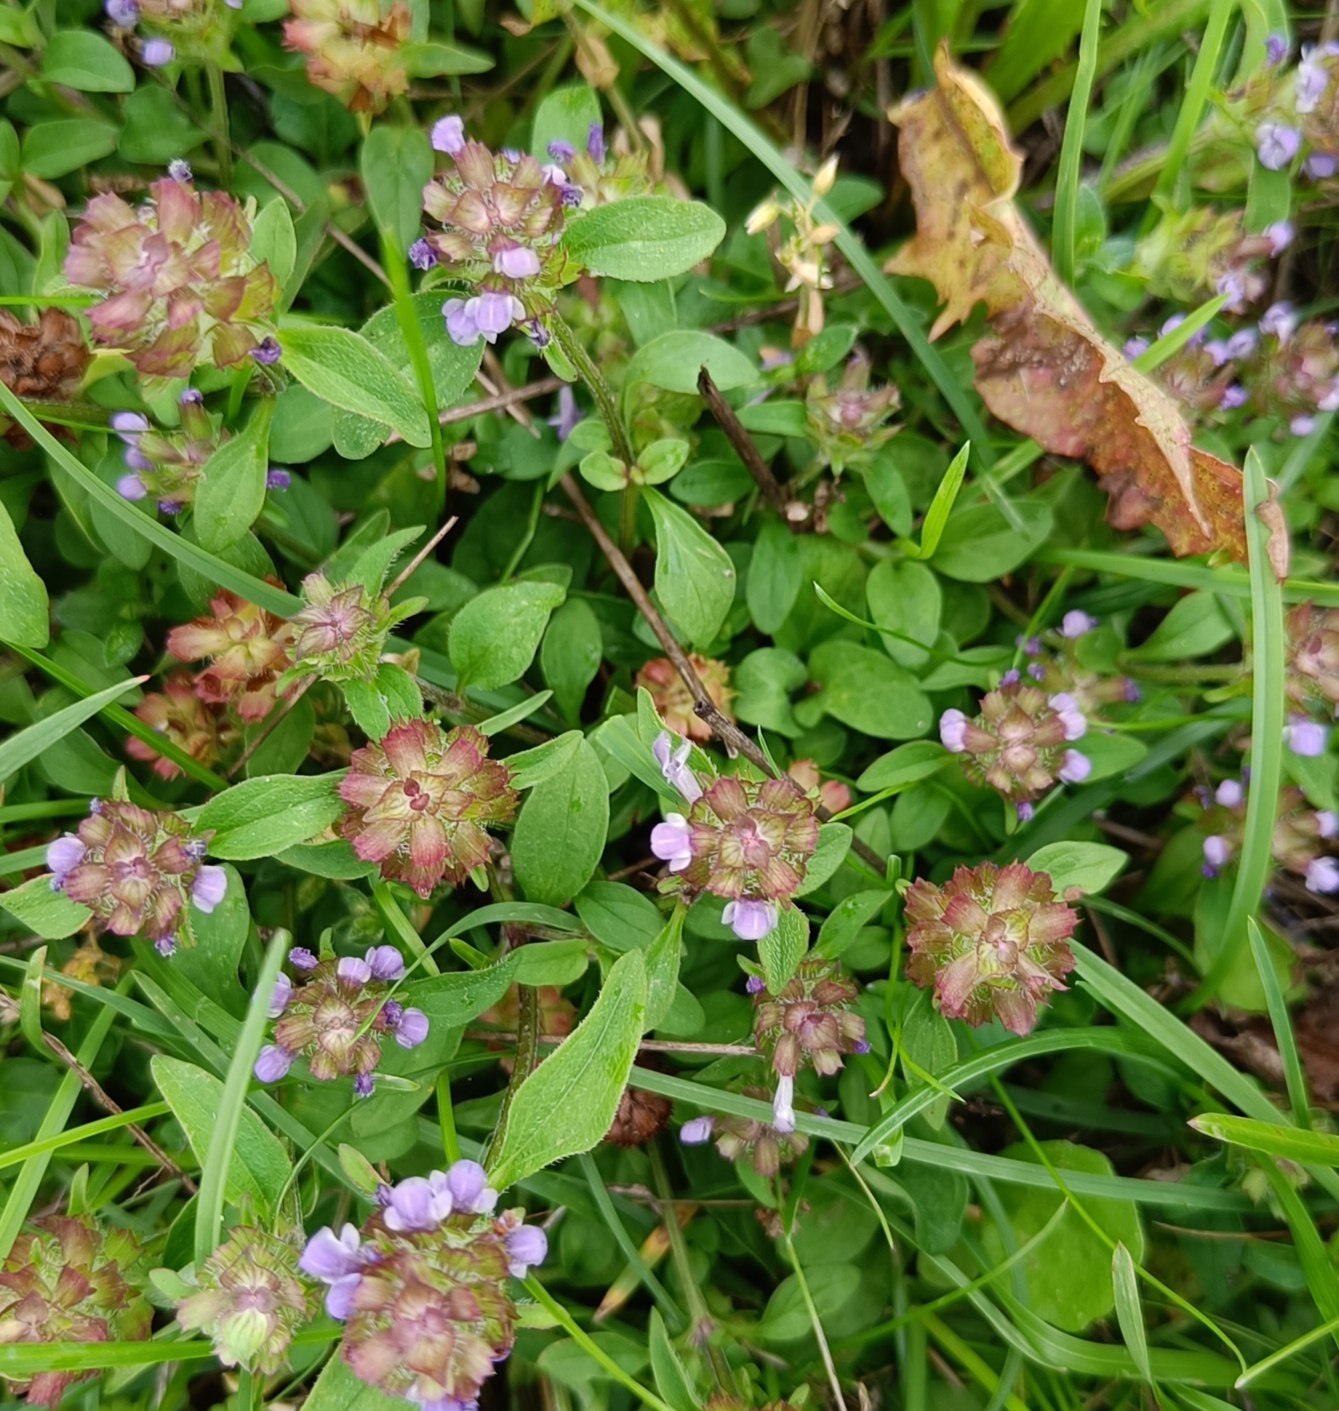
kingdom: Plantae
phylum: Tracheophyta
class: Magnoliopsida
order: Lamiales
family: Lamiaceae
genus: Prunella
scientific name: Prunella vulgaris
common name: Almindelig brunelle
